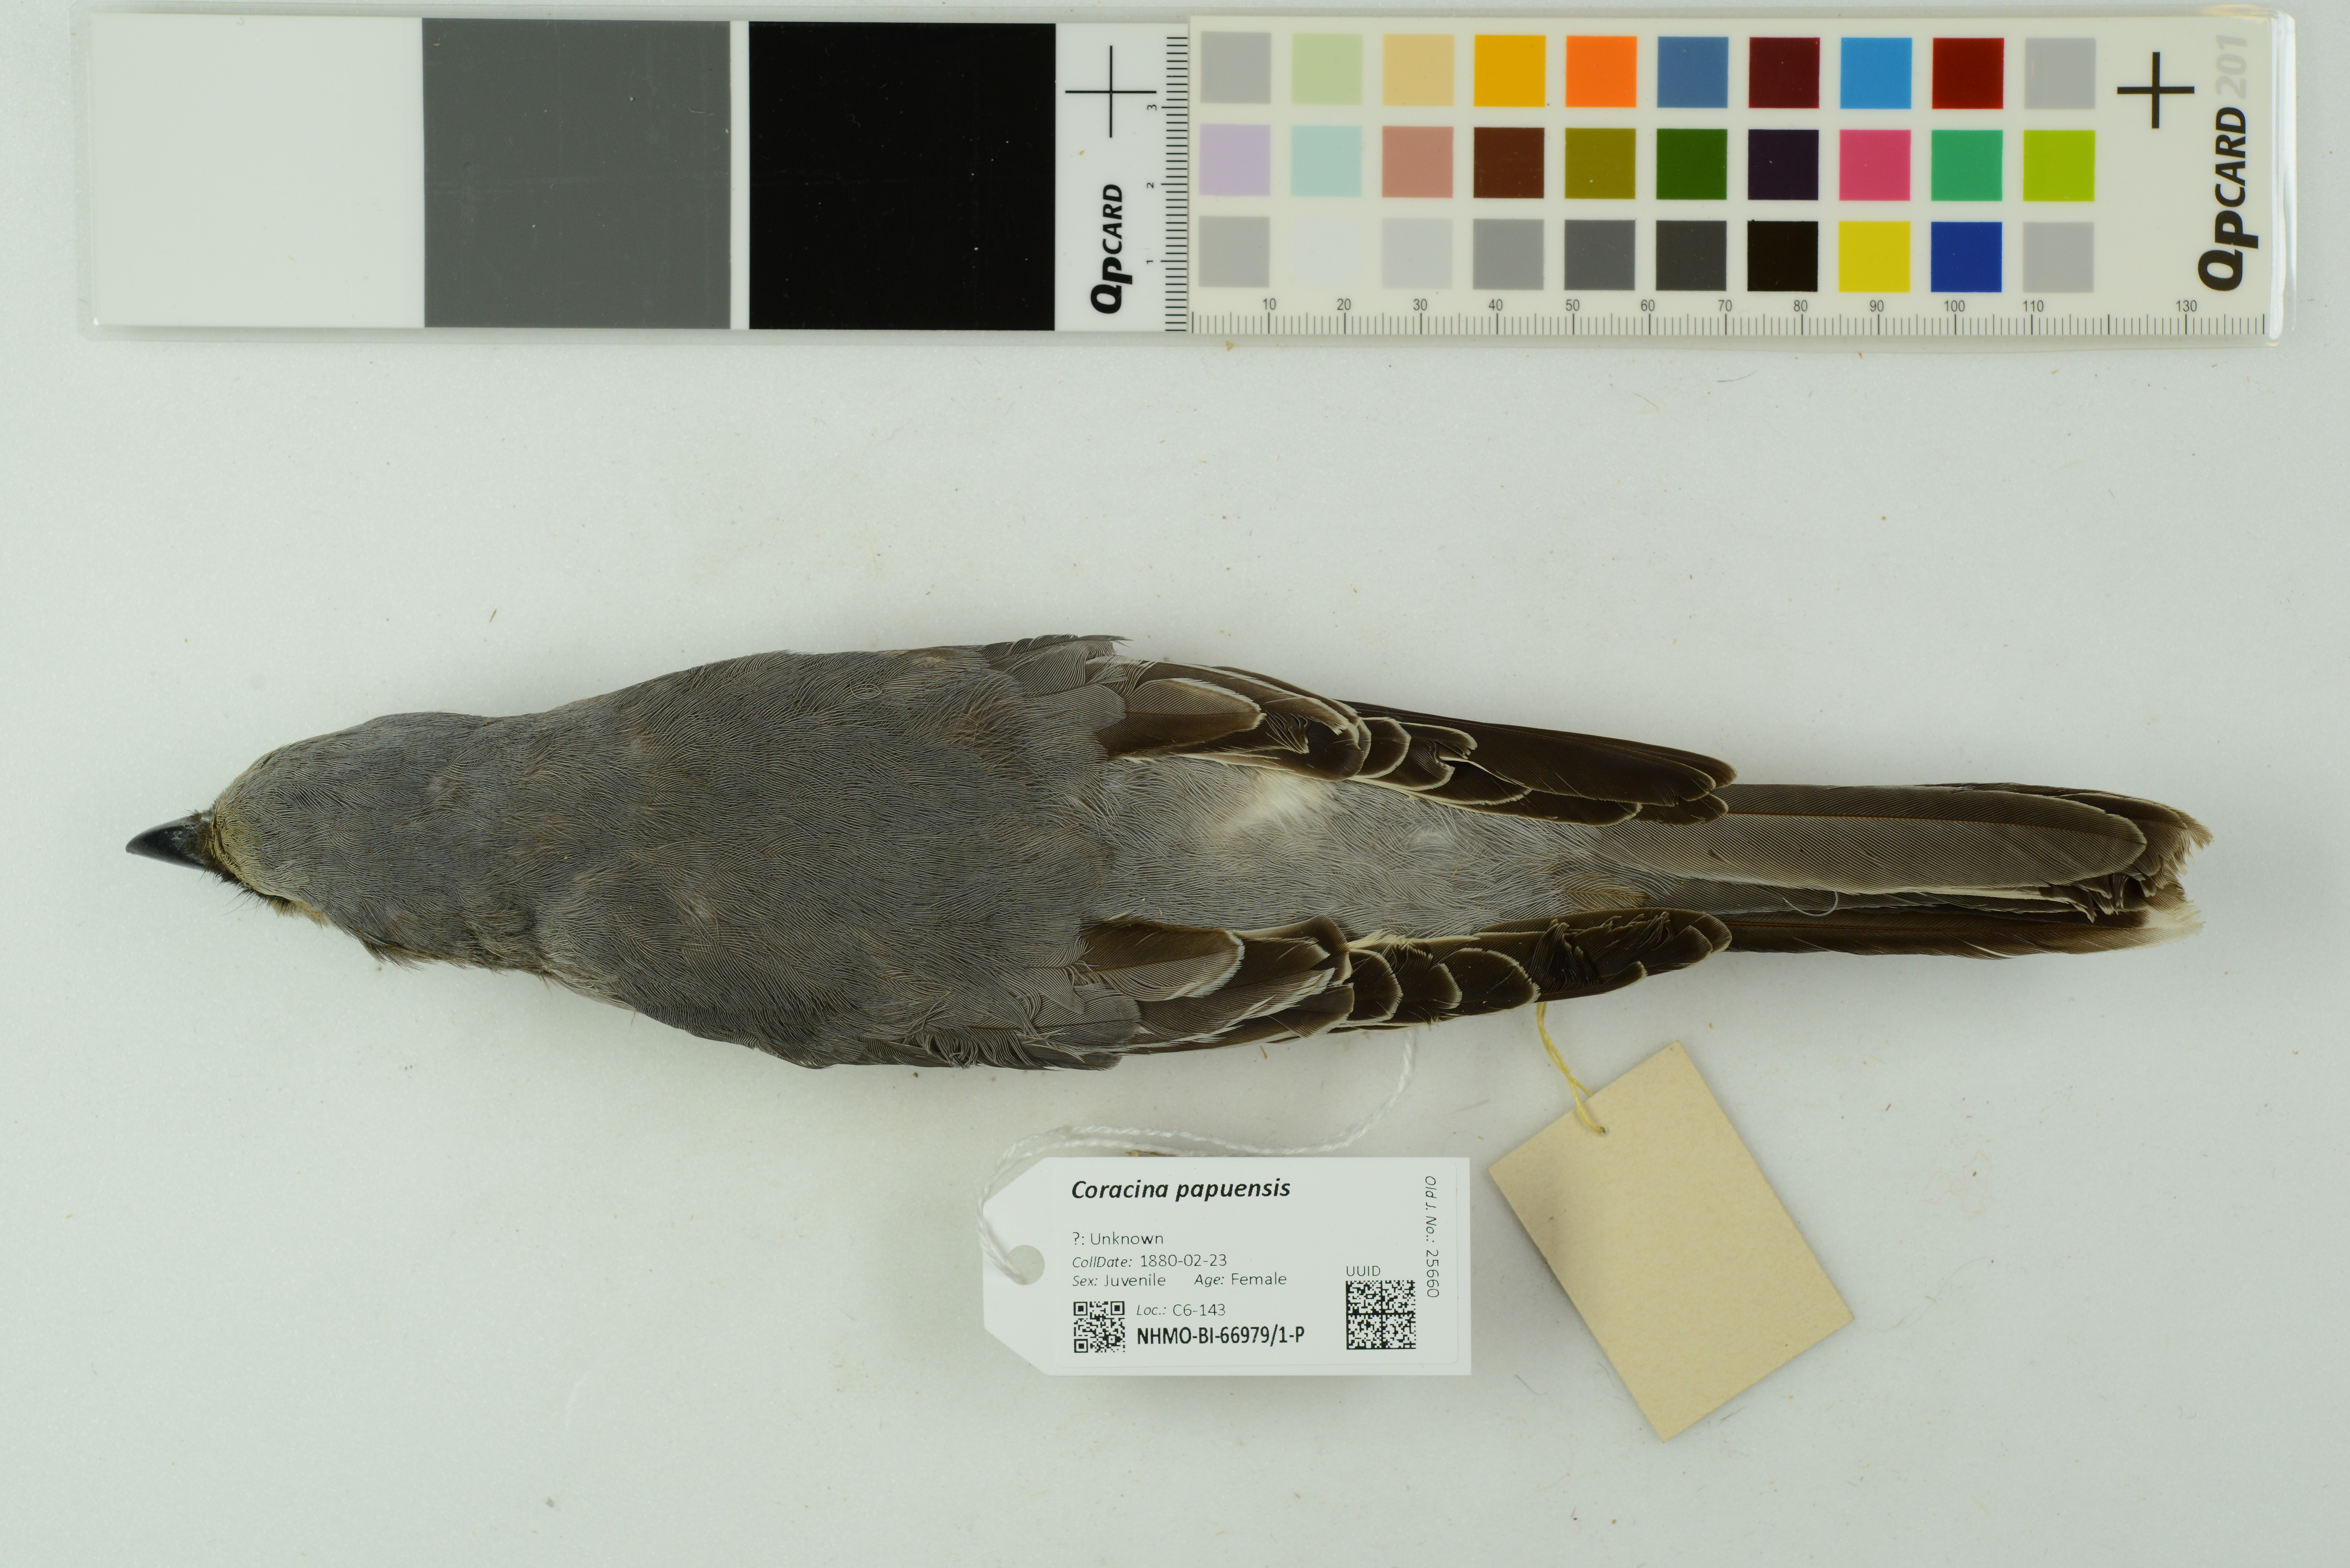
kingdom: Animalia
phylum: Chordata
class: Aves
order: Passeriformes
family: Campephagidae
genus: Coracina
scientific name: Coracina papuensis
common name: White-bellied cuckooshrike
